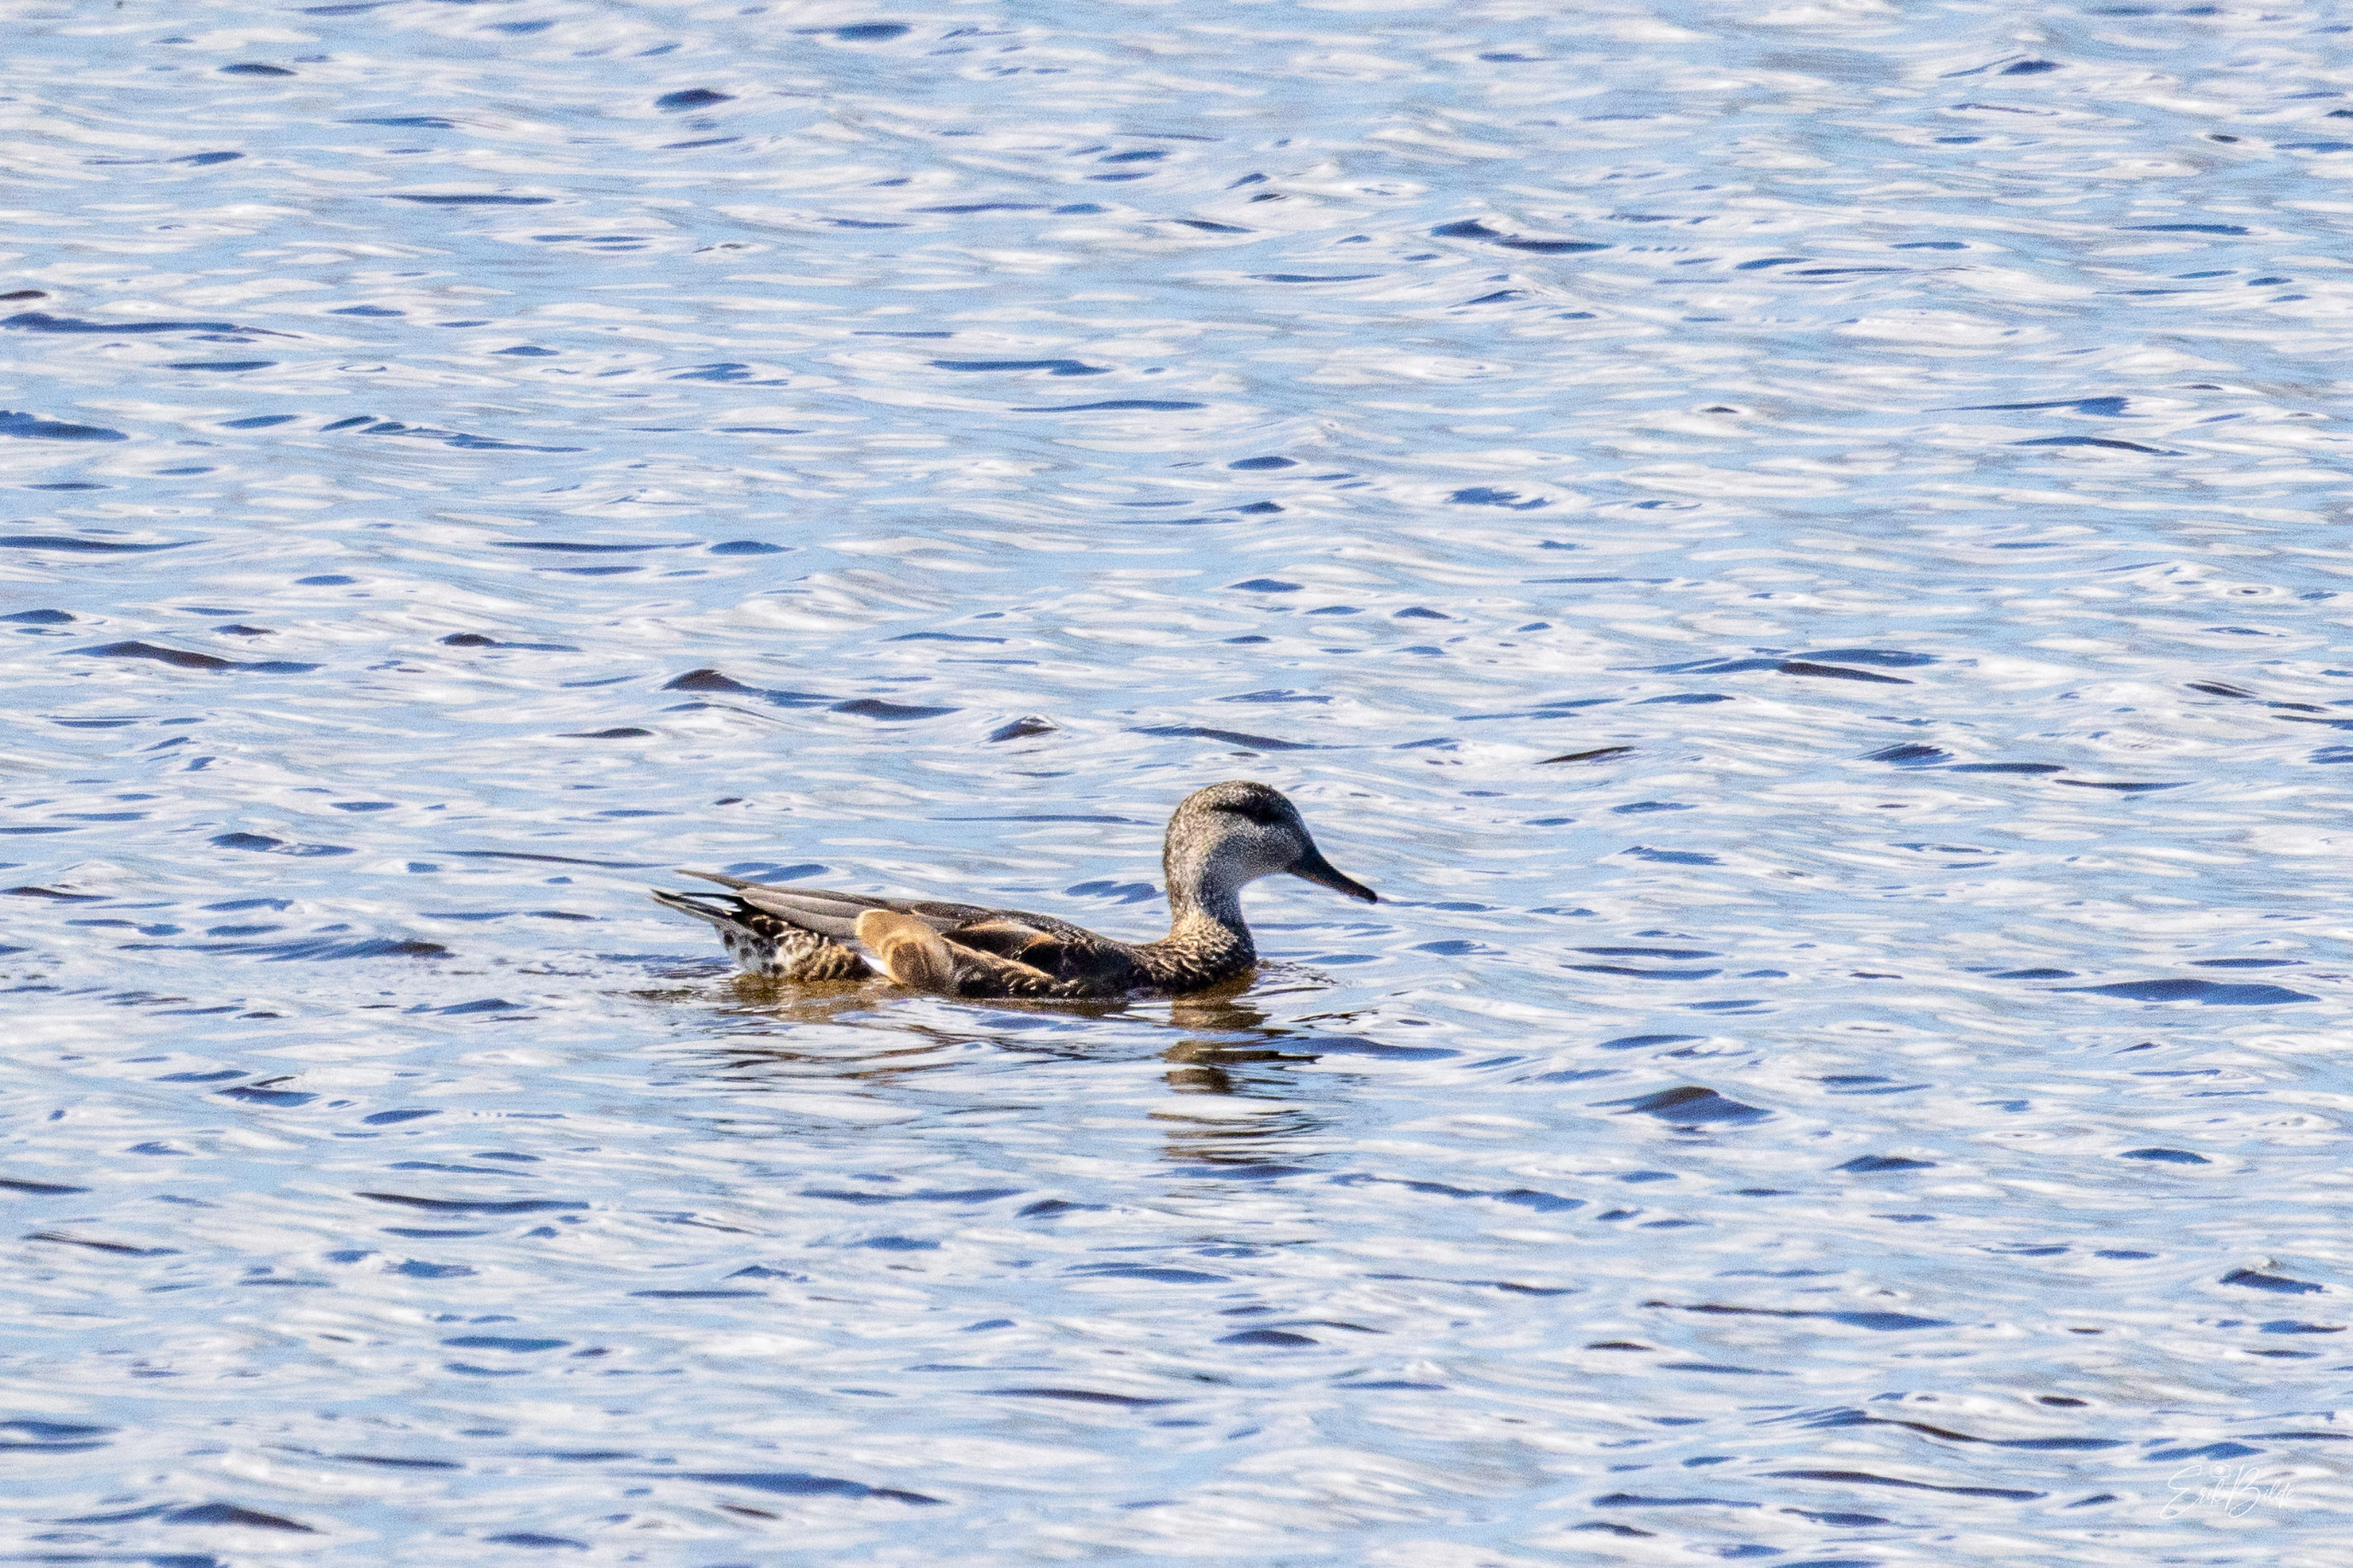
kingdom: Animalia
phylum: Chordata
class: Aves
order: Anseriformes
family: Anatidae
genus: Mareca
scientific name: Mareca strepera
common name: Knarand
